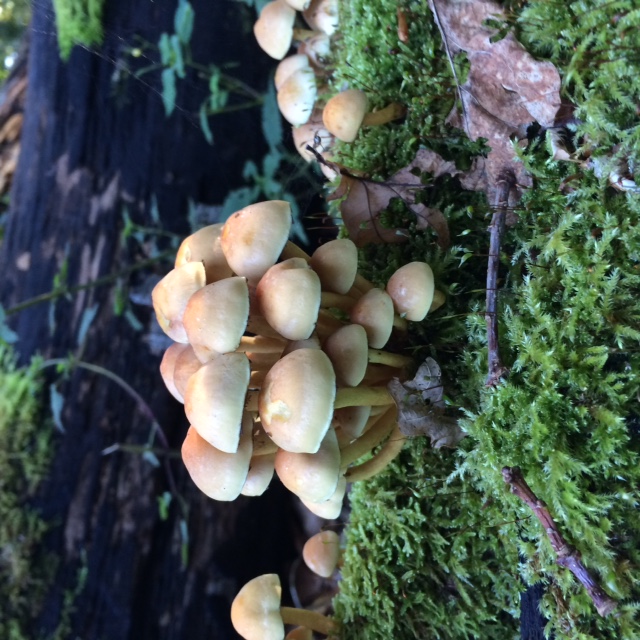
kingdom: Fungi
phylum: Basidiomycota
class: Agaricomycetes
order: Agaricales
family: Strophariaceae
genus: Hypholoma
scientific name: Hypholoma fasciculare
